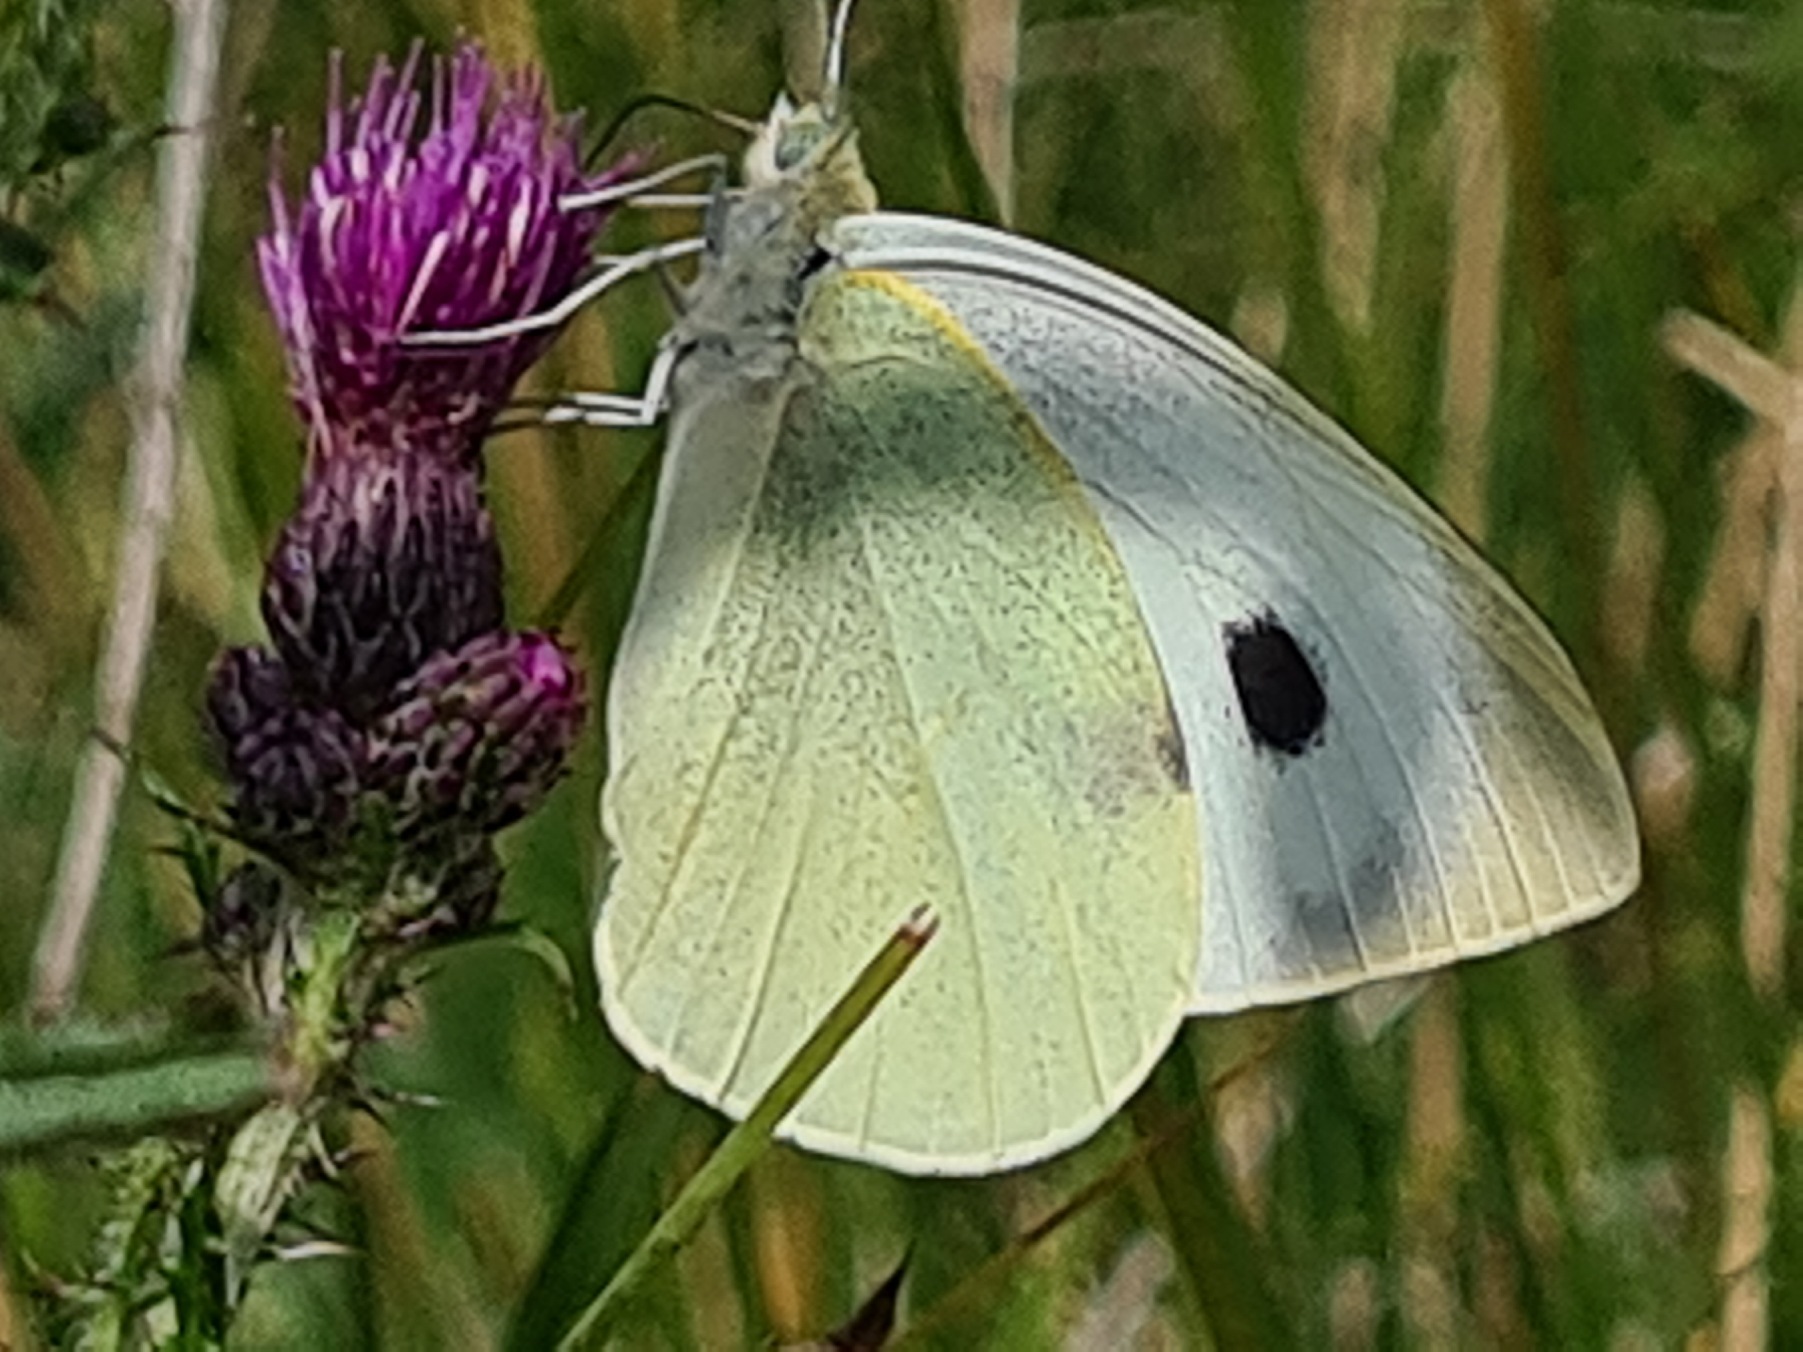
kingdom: Animalia
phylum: Arthropoda
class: Insecta
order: Lepidoptera
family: Pieridae
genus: Pieris
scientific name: Pieris brassicae
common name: Stor kålsommerfugl
